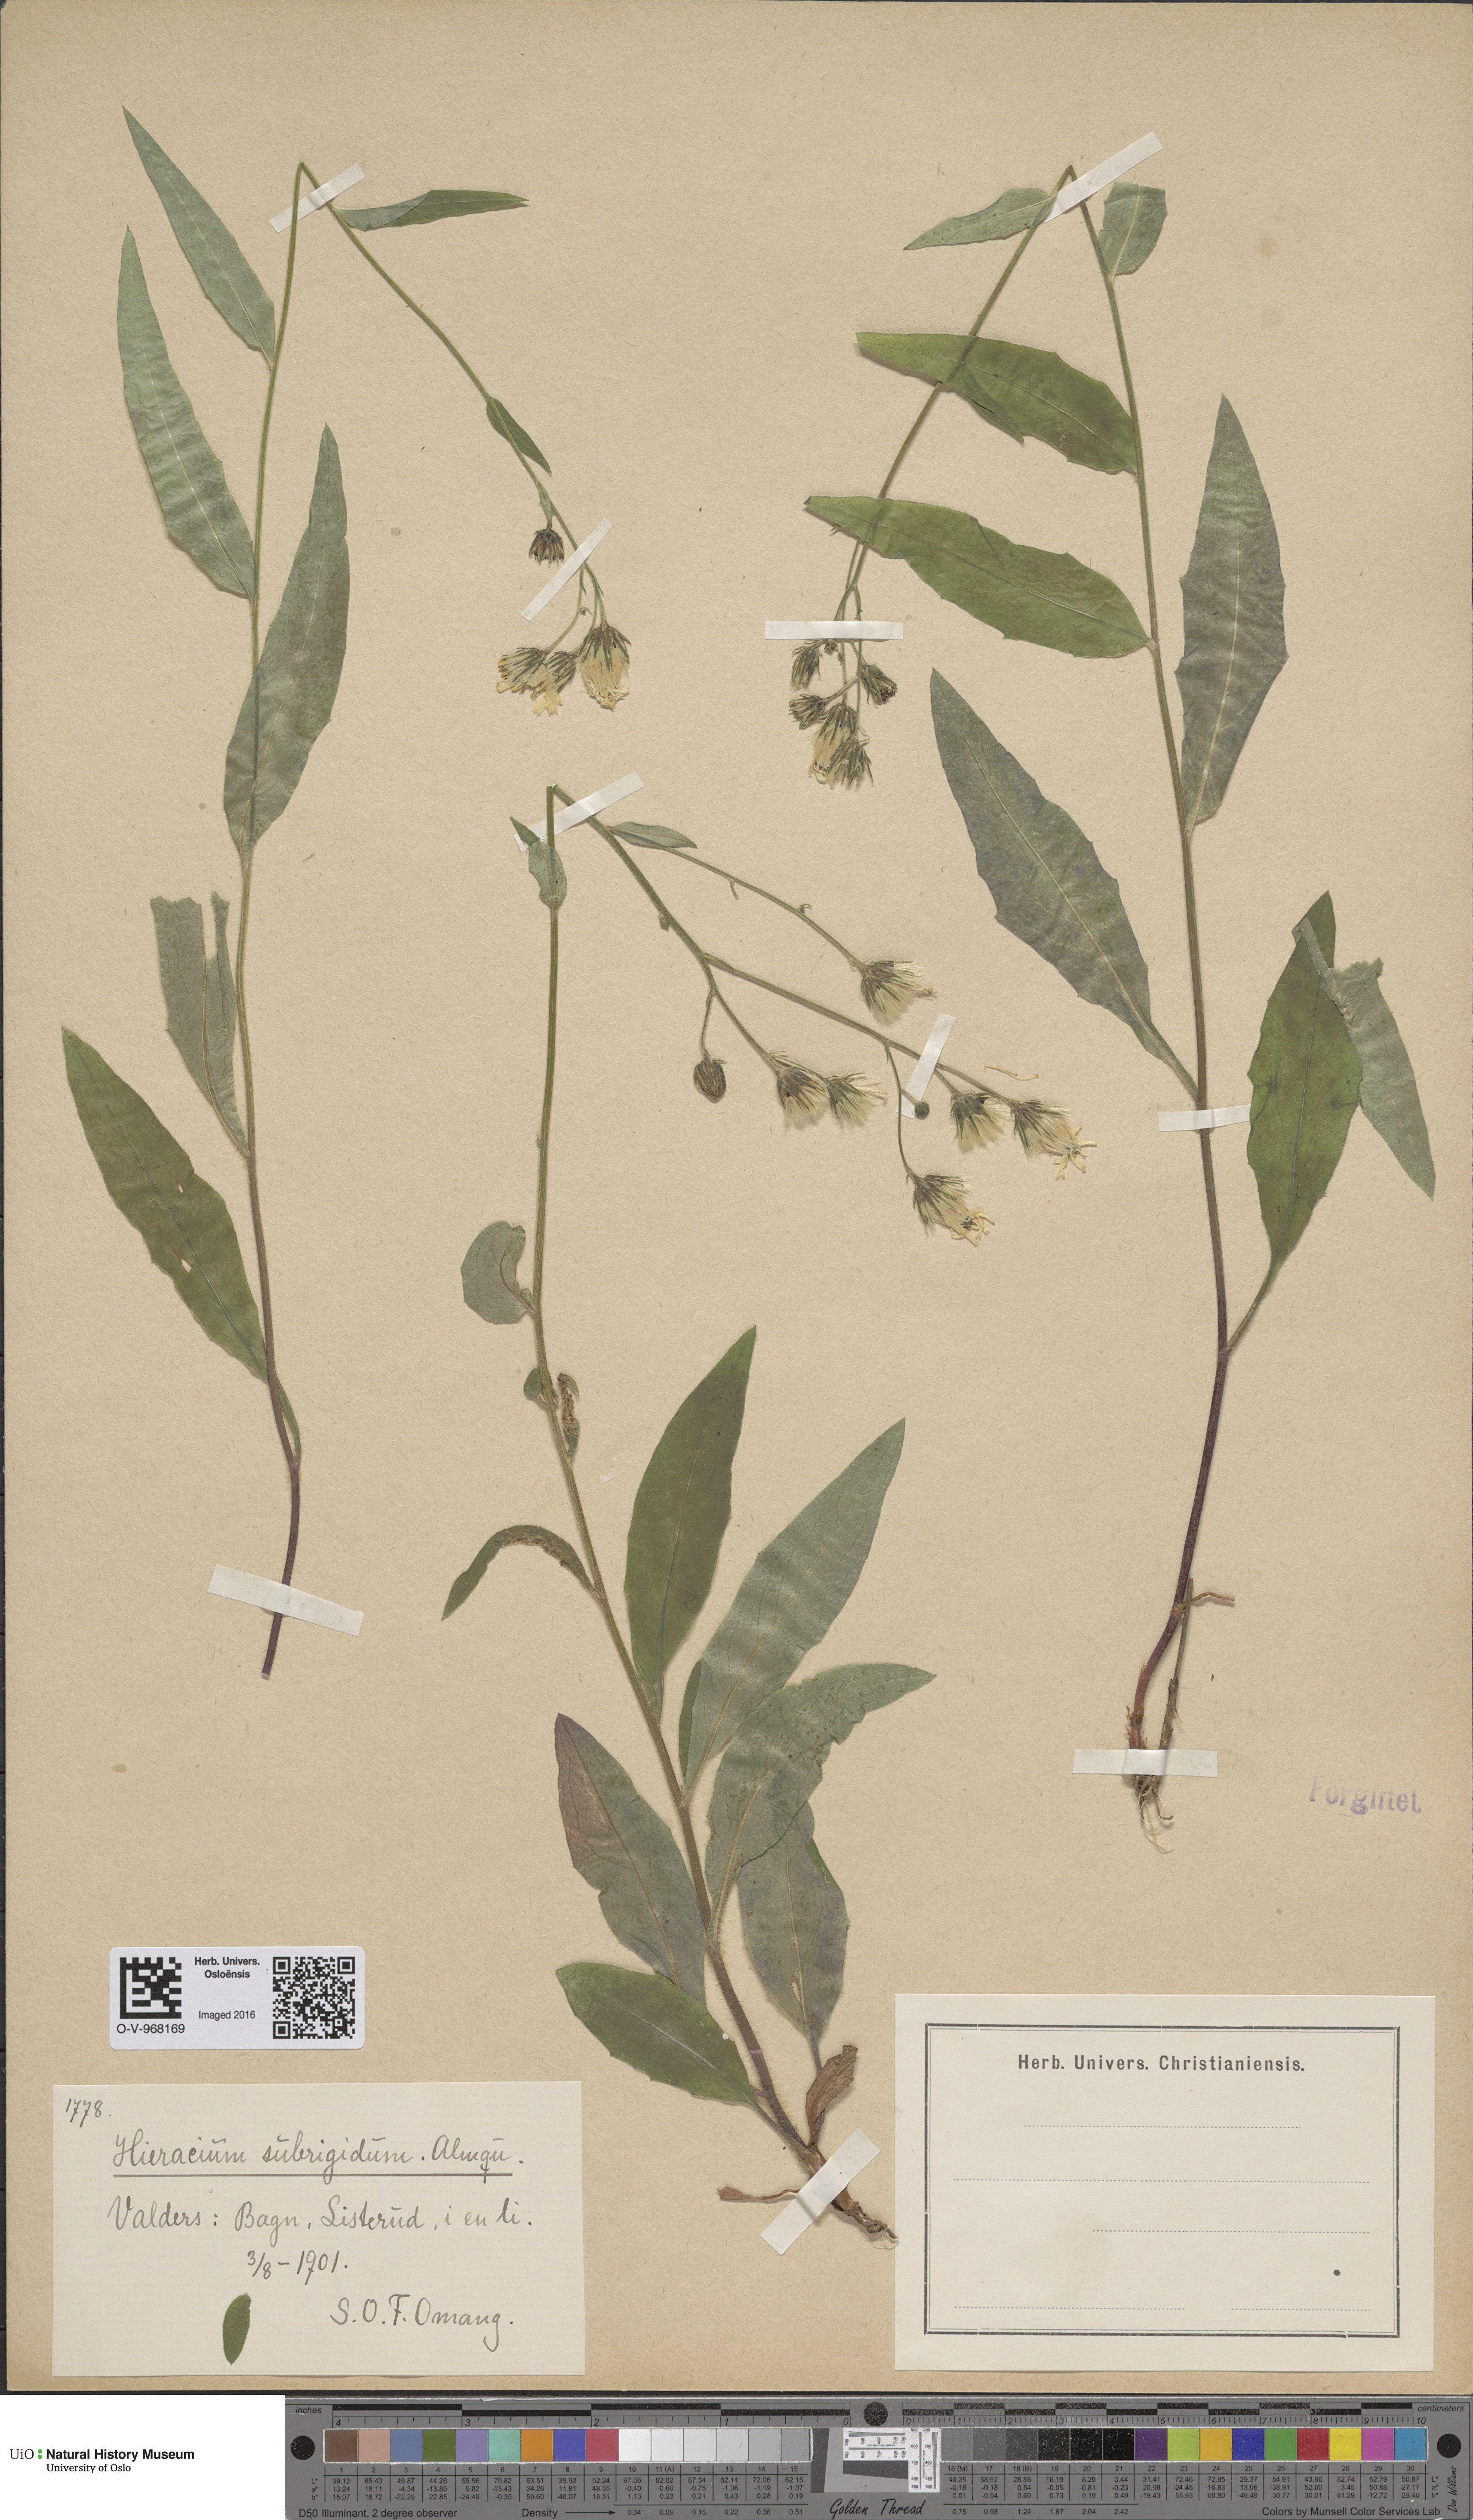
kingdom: Plantae
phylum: Tracheophyta
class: Magnoliopsida
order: Asterales
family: Asteraceae
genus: Hieracium
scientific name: Hieracium subrigidum
